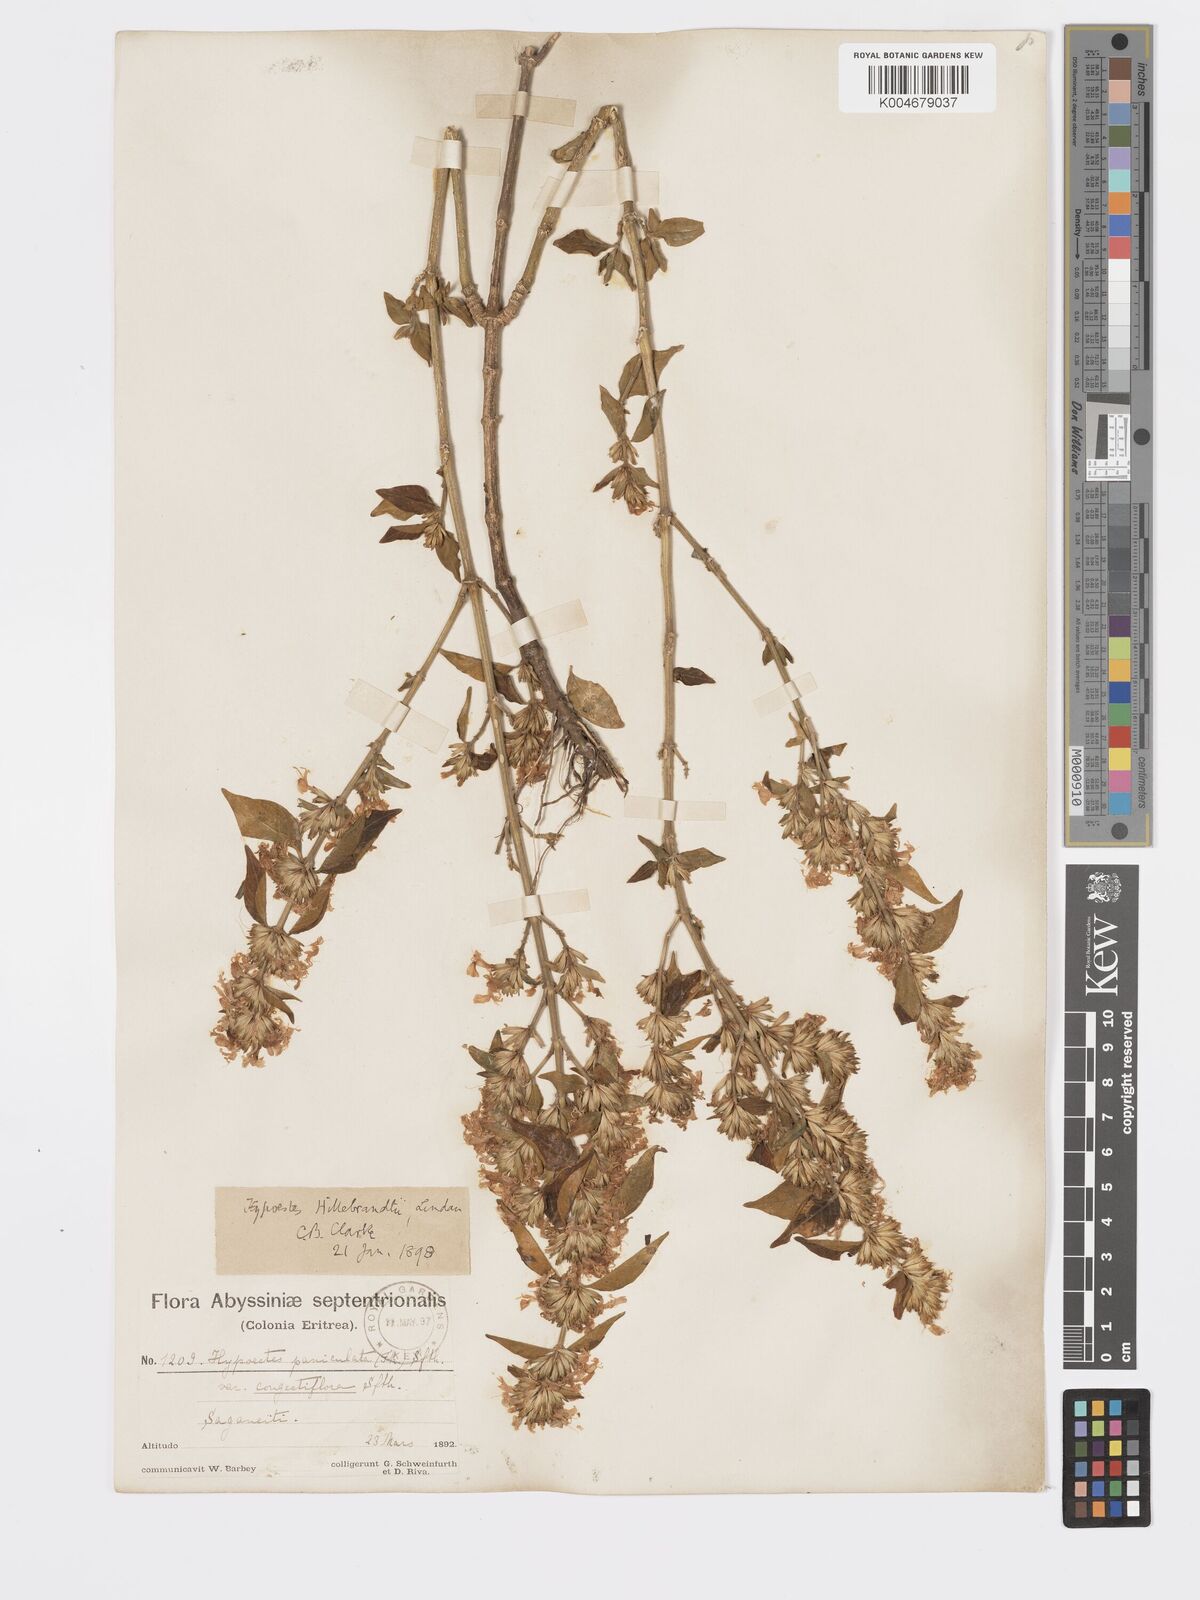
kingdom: Plantae
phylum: Tracheophyta
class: Magnoliopsida
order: Lamiales
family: Acanthaceae
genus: Hypoestes
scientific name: Hypoestes forskaolii
